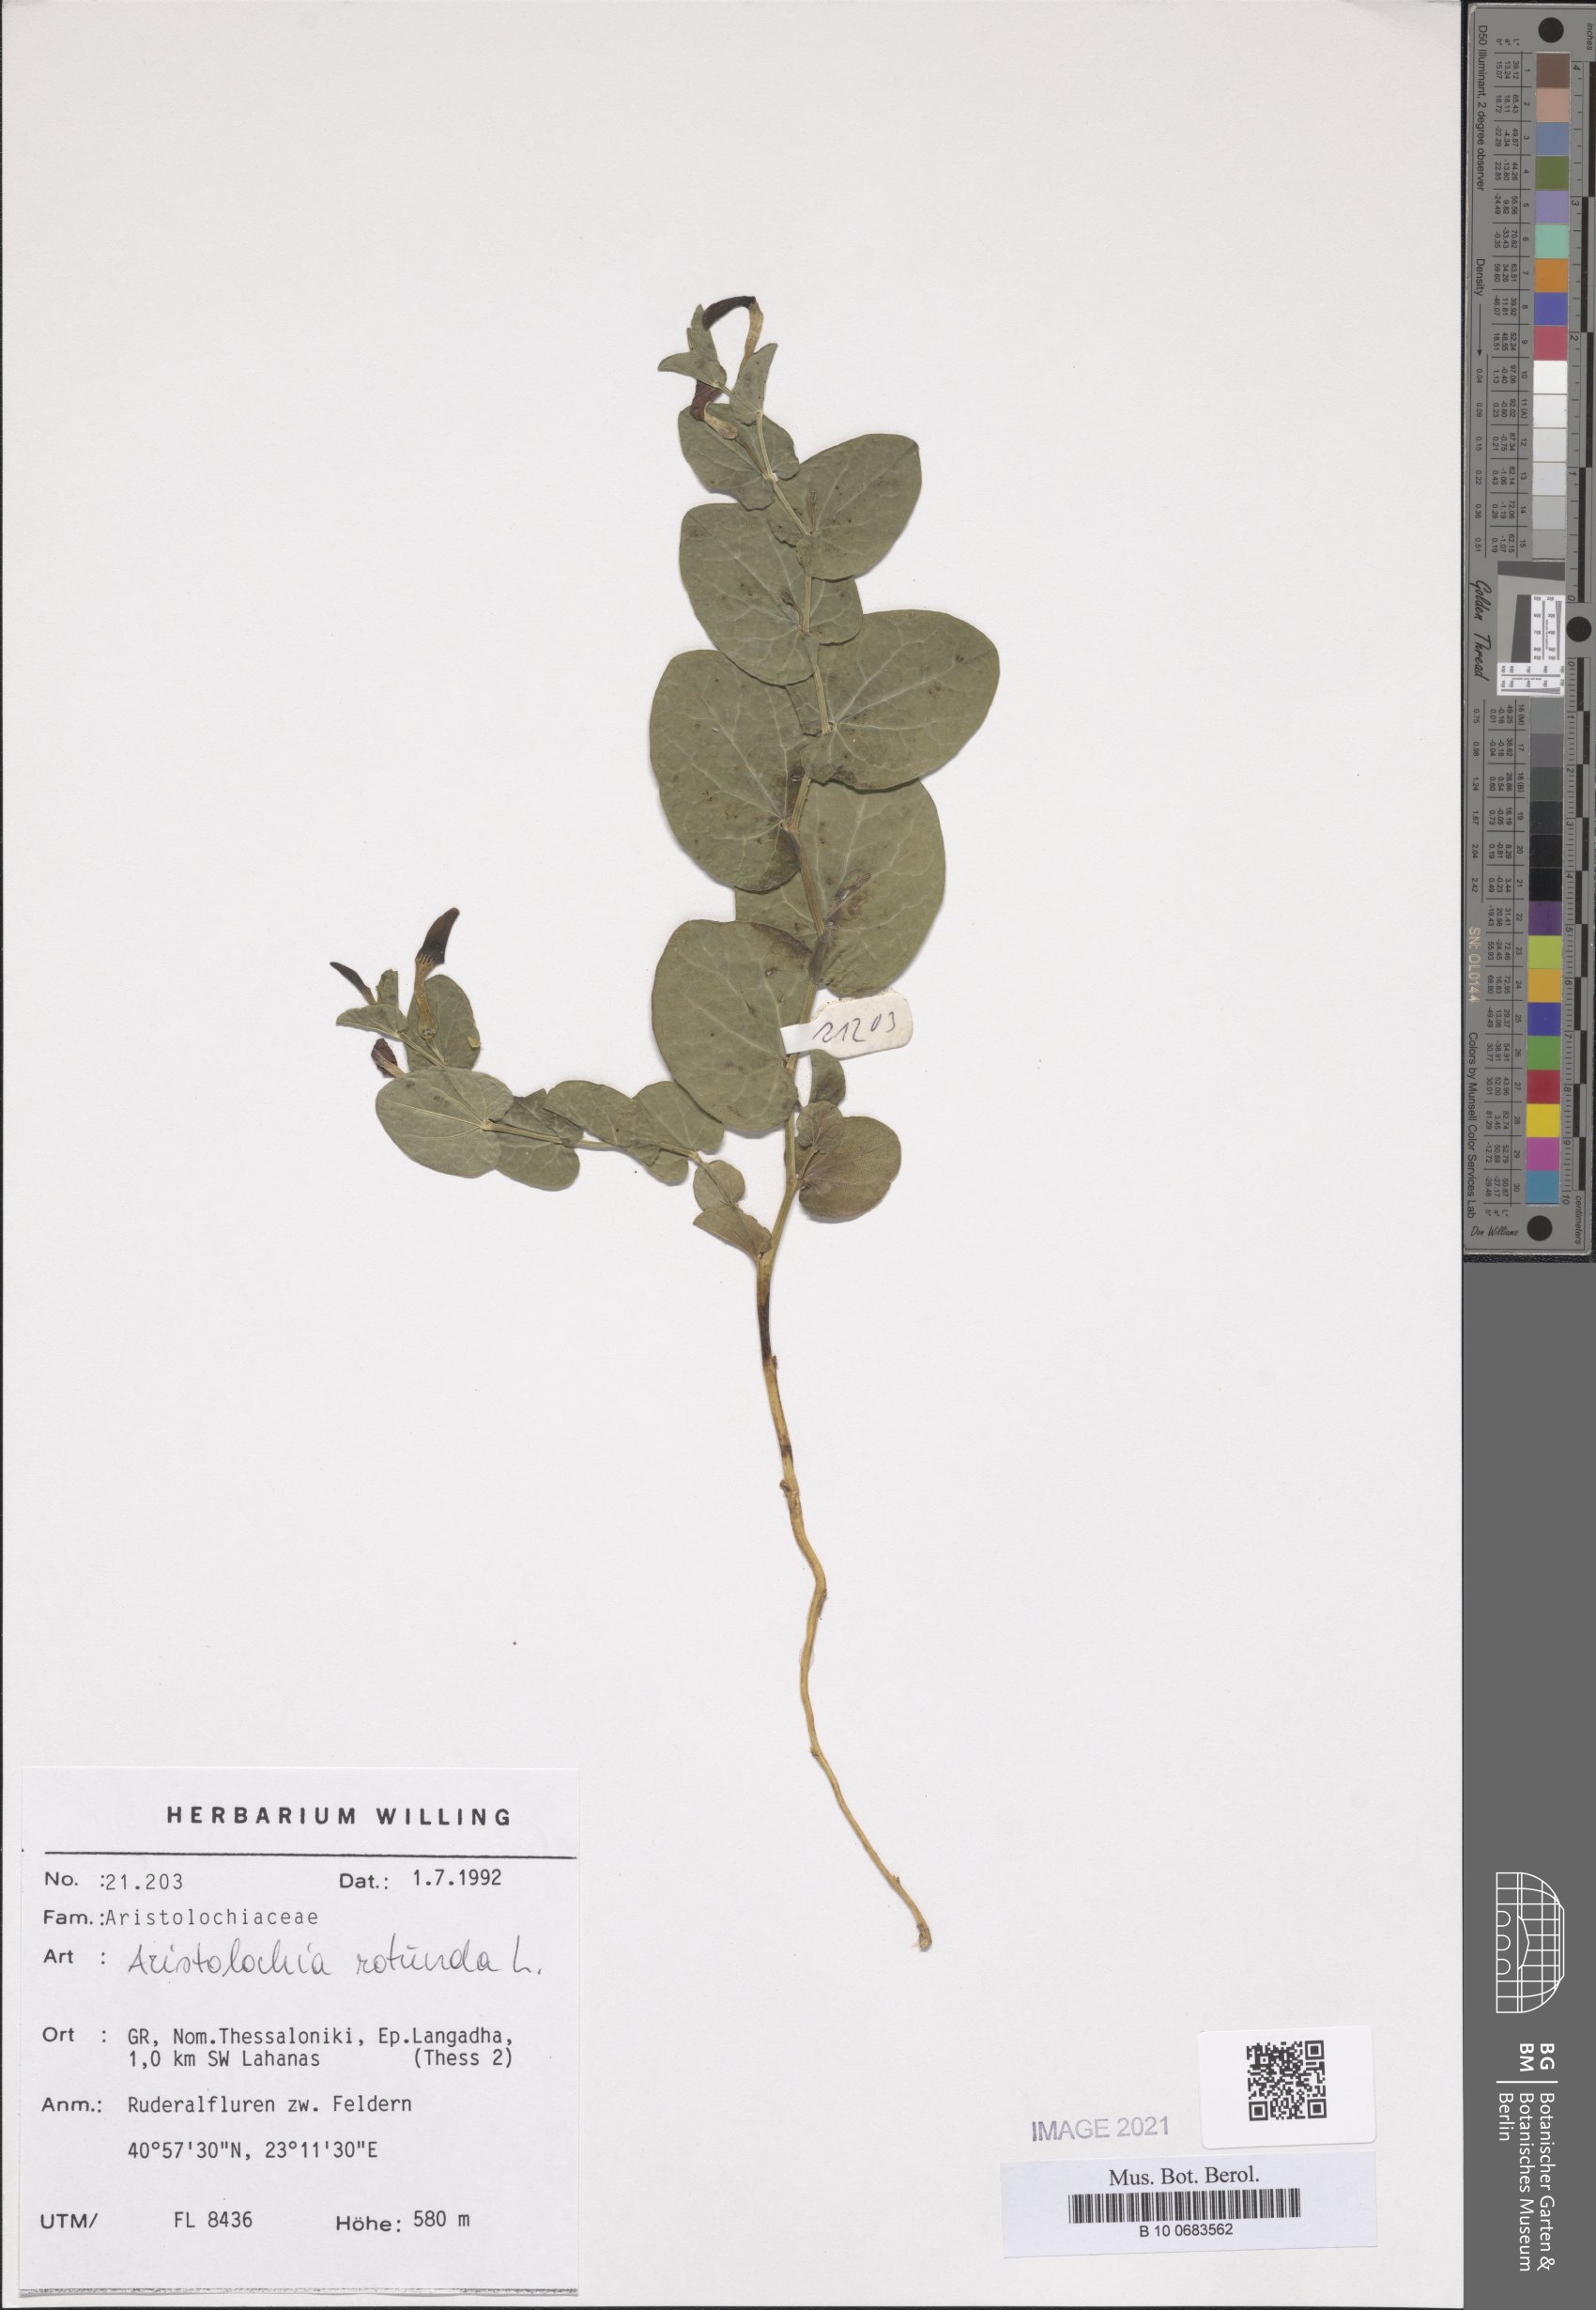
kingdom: Plantae
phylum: Tracheophyta
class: Magnoliopsida
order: Piperales
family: Aristolochiaceae
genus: Aristolochia
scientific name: Aristolochia rotunda
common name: Smearwort
